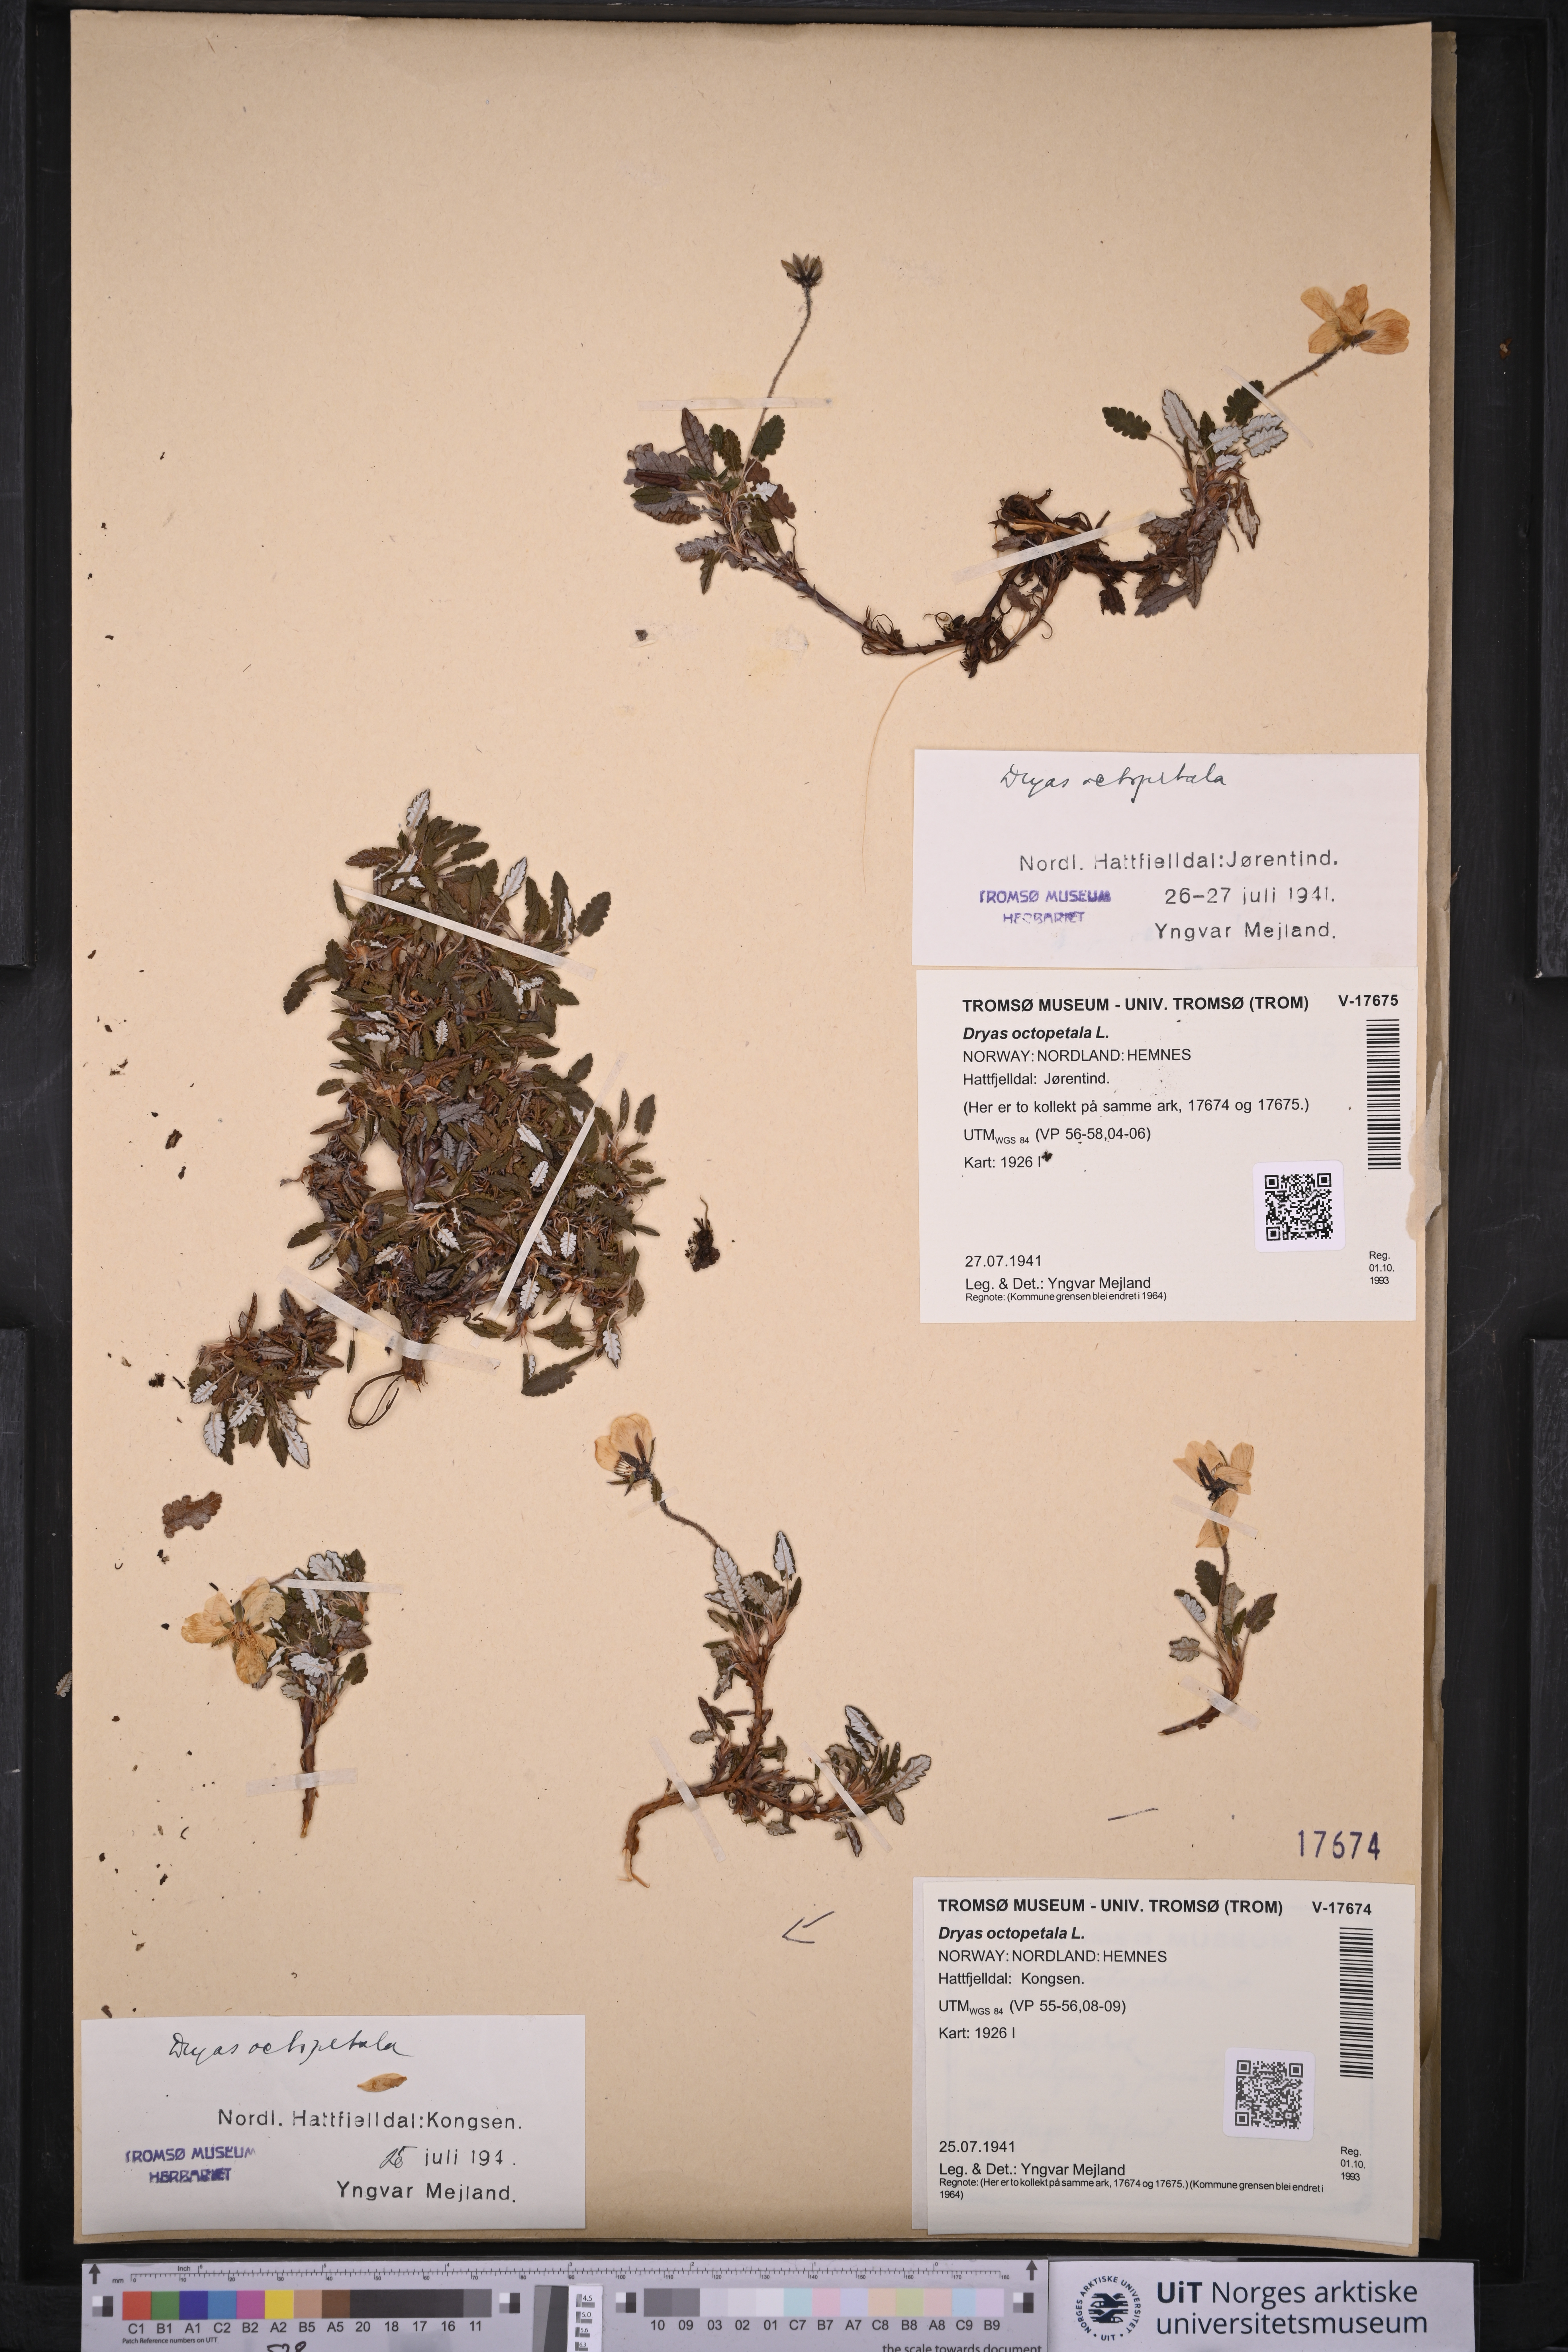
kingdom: Plantae
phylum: Tracheophyta
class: Magnoliopsida
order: Rosales
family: Rosaceae
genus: Dryas
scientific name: Dryas octopetala
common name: Eight-petal mountain-avens
